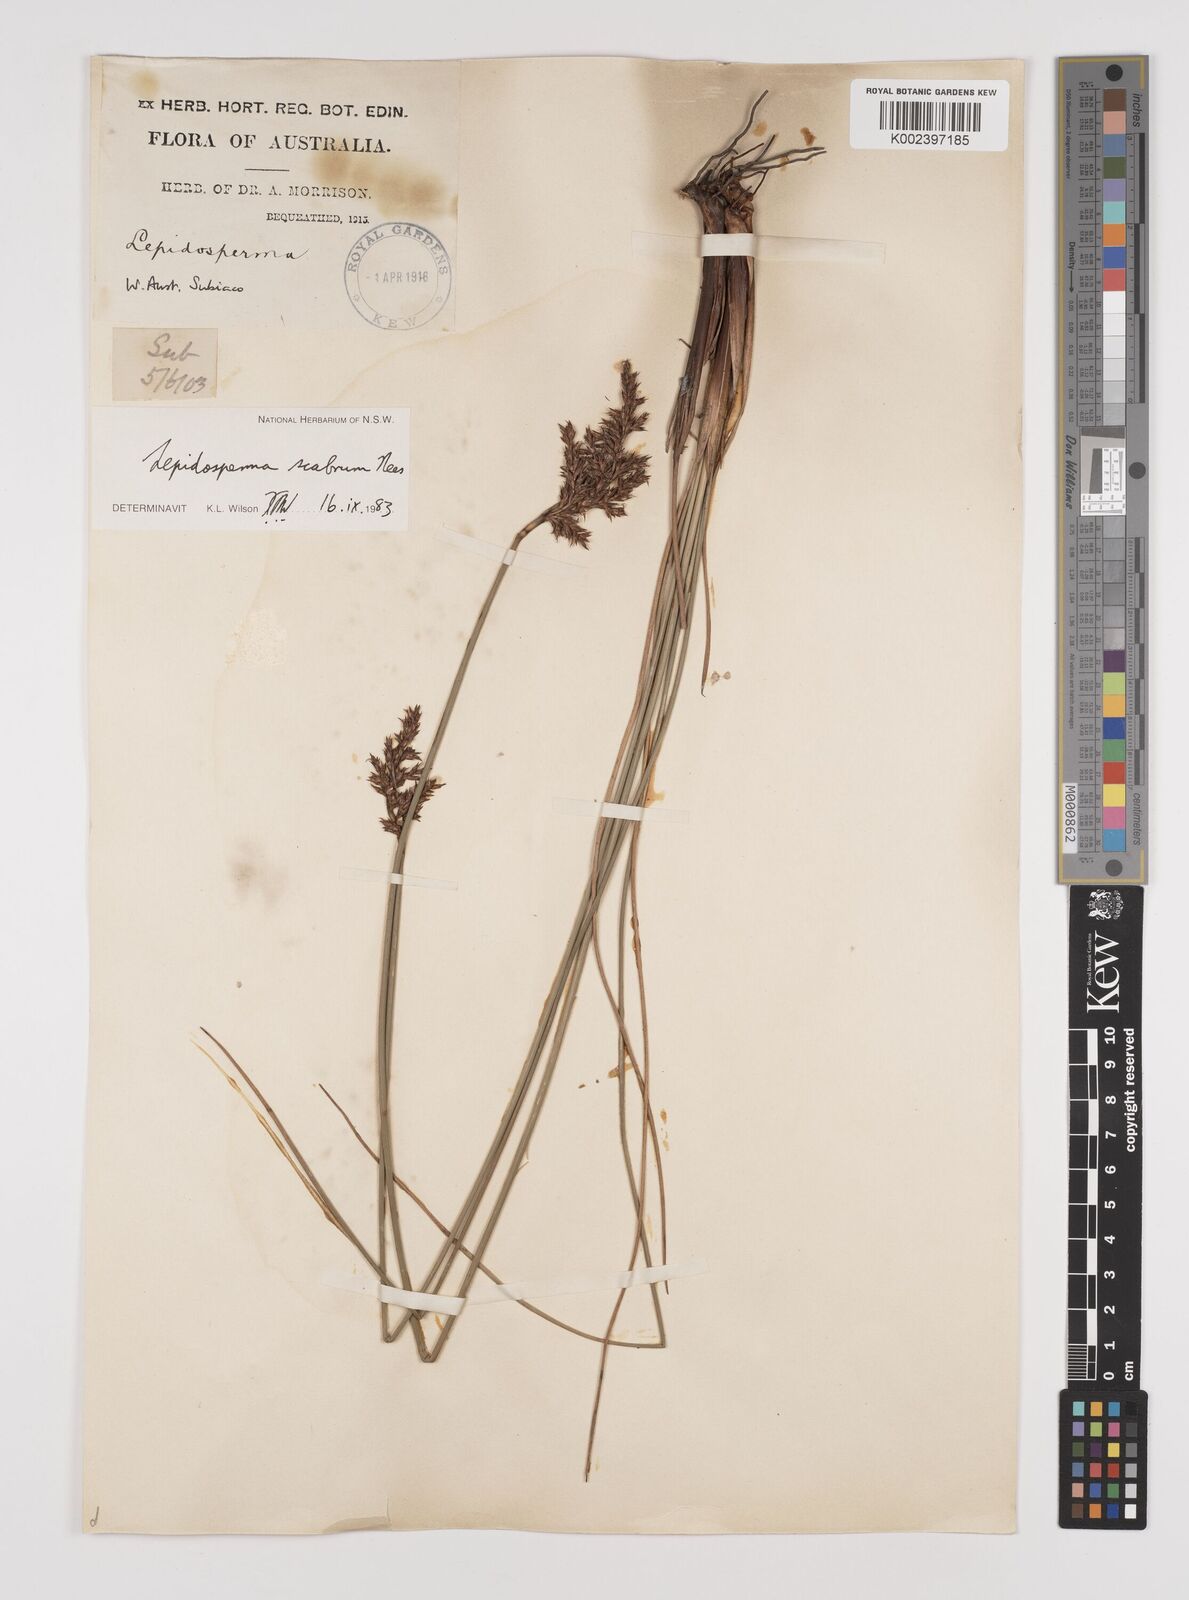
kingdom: Plantae
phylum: Tracheophyta
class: Liliopsida
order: Poales
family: Cyperaceae
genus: Lepidosperma
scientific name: Lepidosperma scabrum
